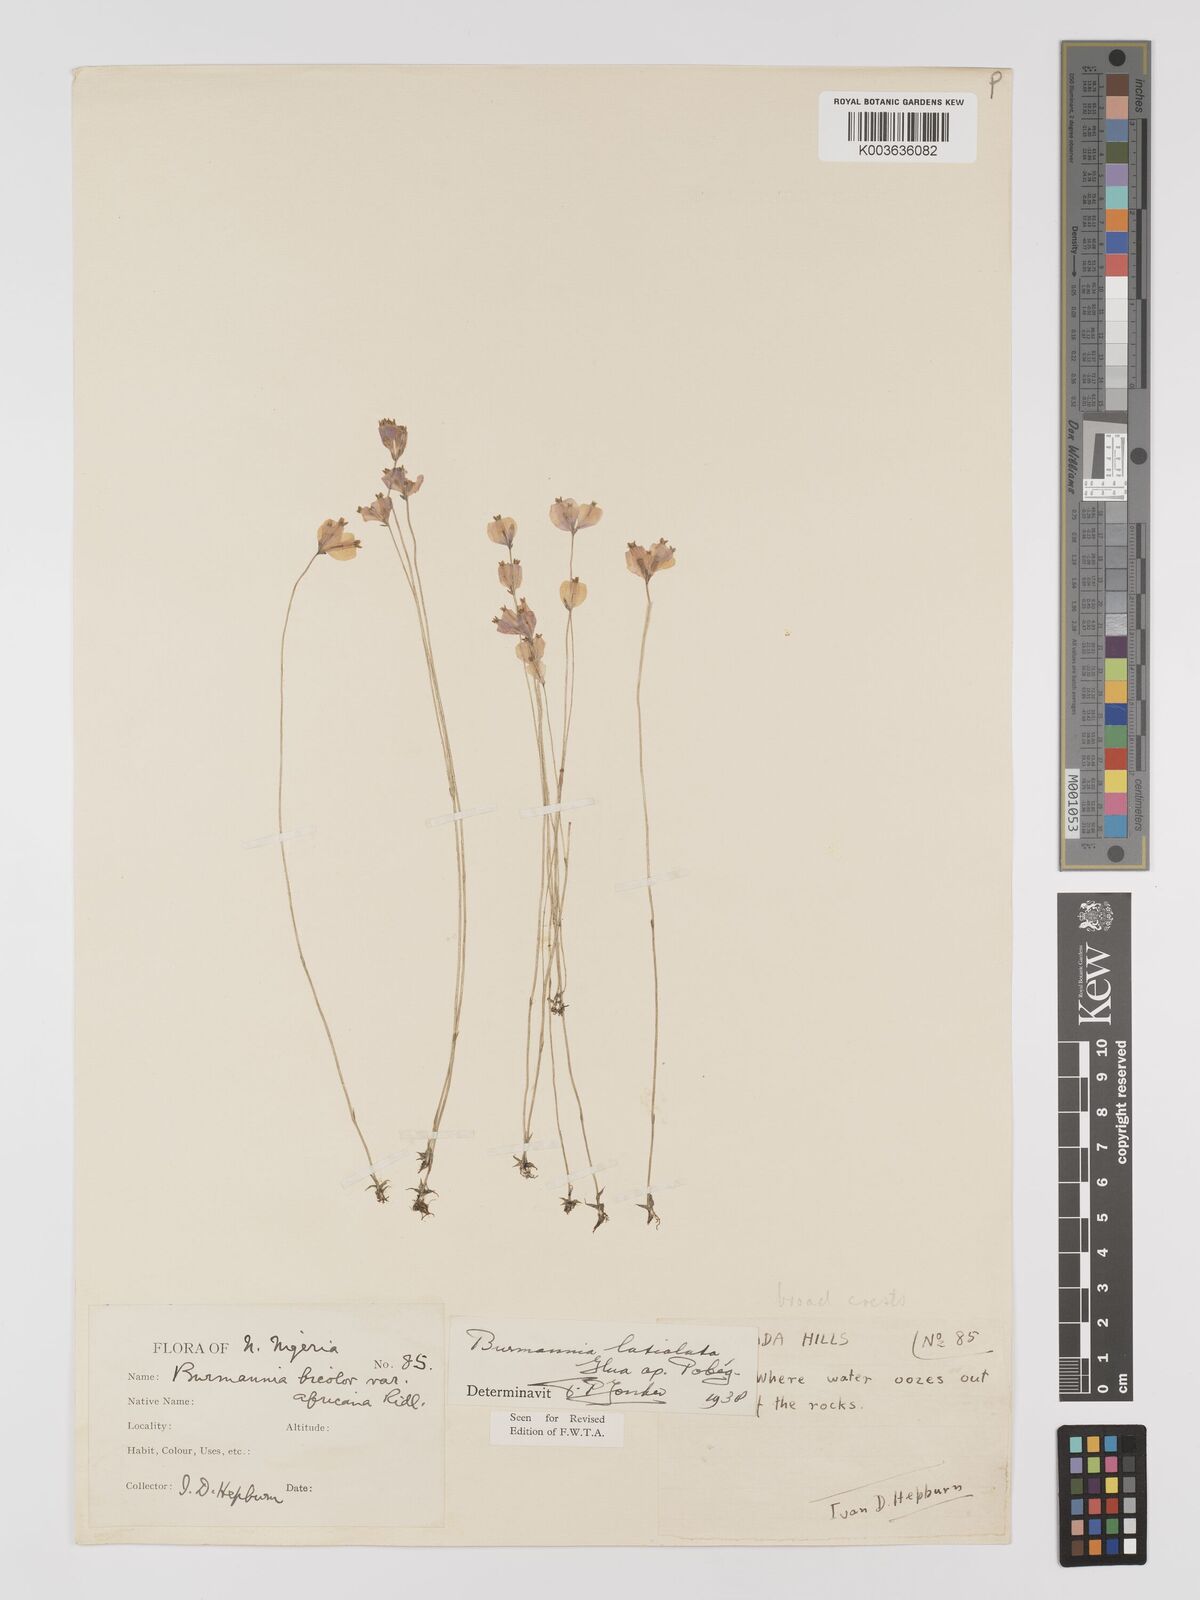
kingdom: Plantae
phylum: Tracheophyta
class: Liliopsida
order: Dioscoreales
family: Burmanniaceae
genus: Burmannia
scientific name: Burmannia madagascariensis
